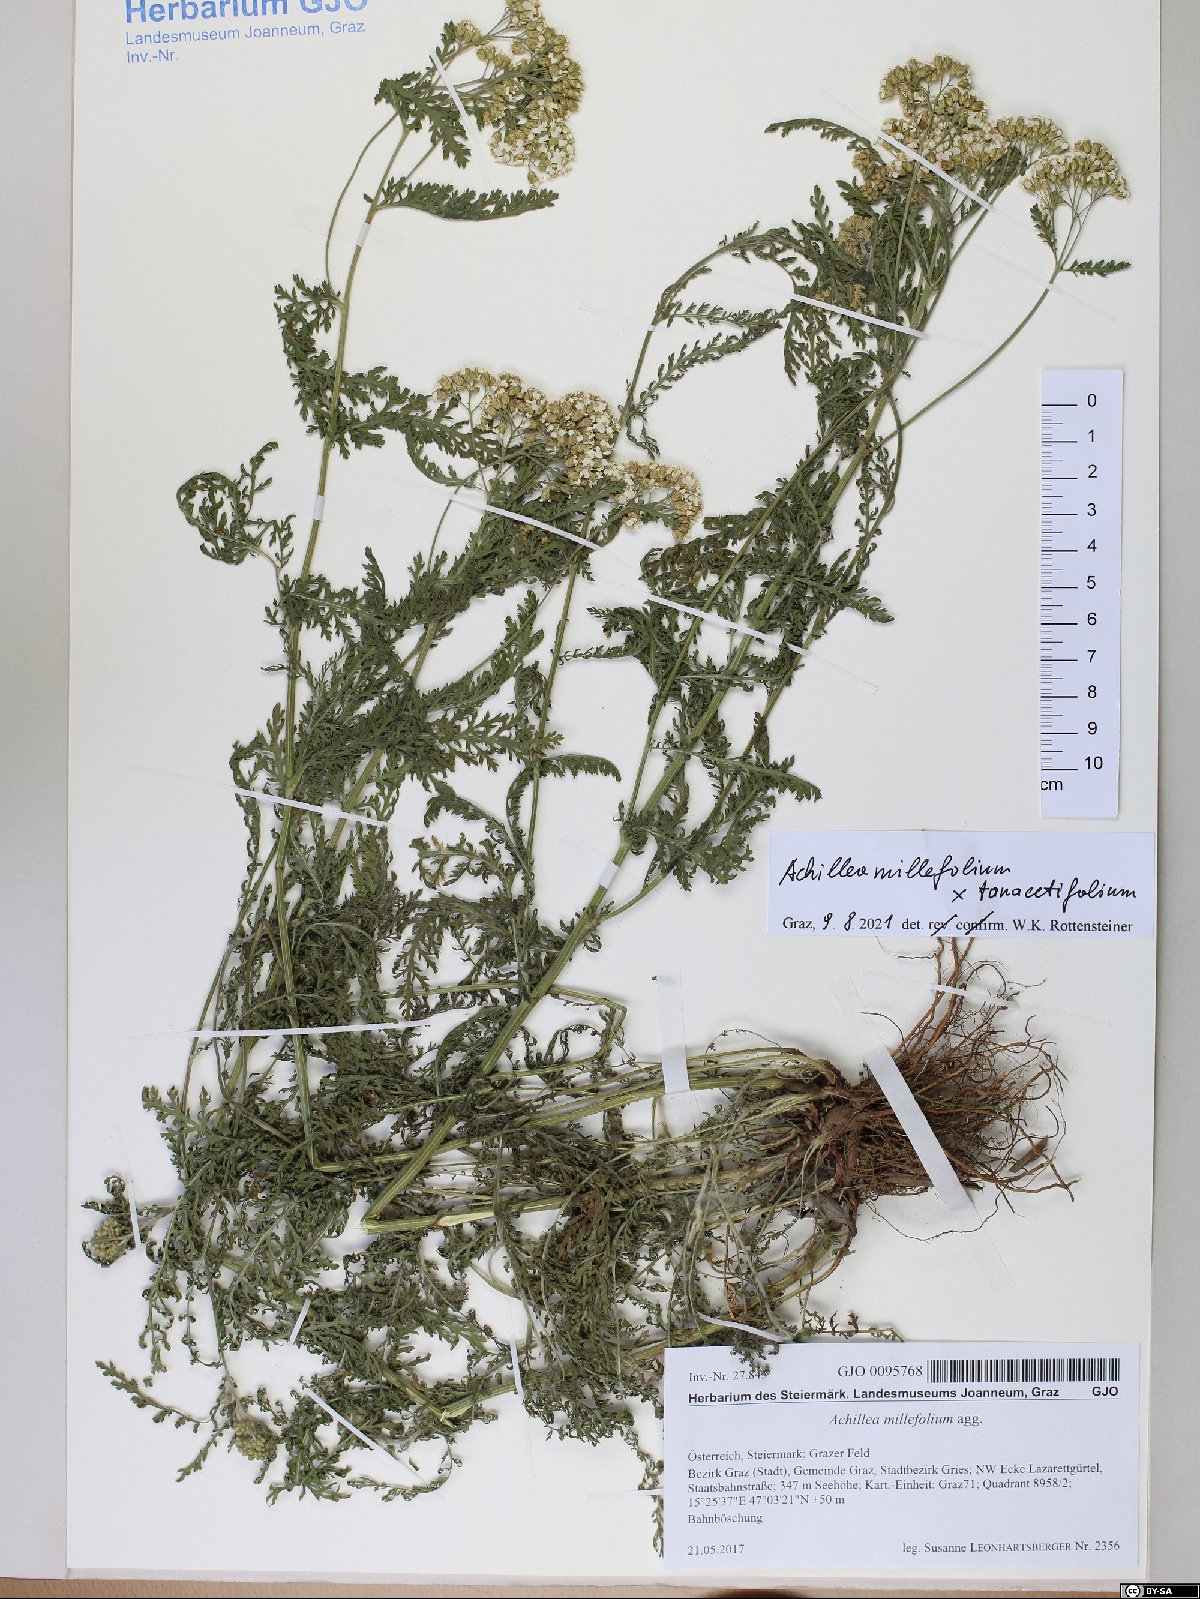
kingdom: Plantae
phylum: Tracheophyta
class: Magnoliopsida
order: Asterales
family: Asteraceae
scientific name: Asteraceae
